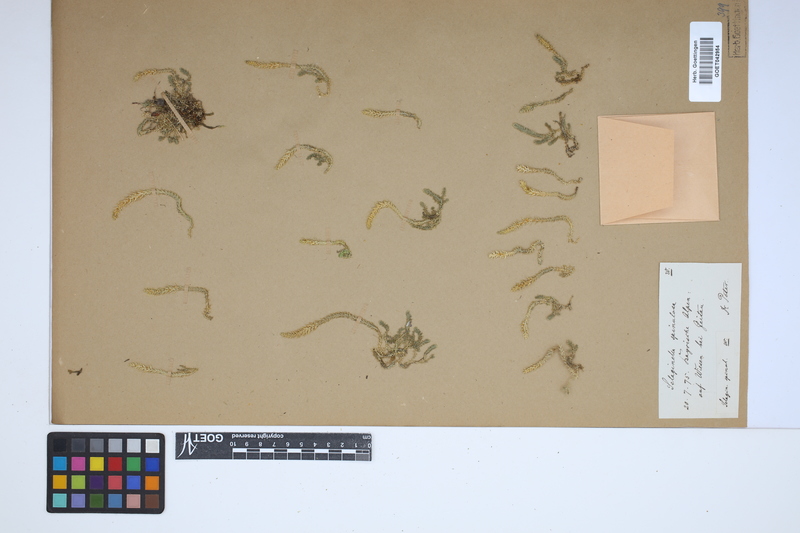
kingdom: Plantae
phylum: Tracheophyta
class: Lycopodiopsida
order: Selaginellales
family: Selaginellaceae
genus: Selaginella
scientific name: Selaginella selaginoides
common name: Prickly mountain-moss
